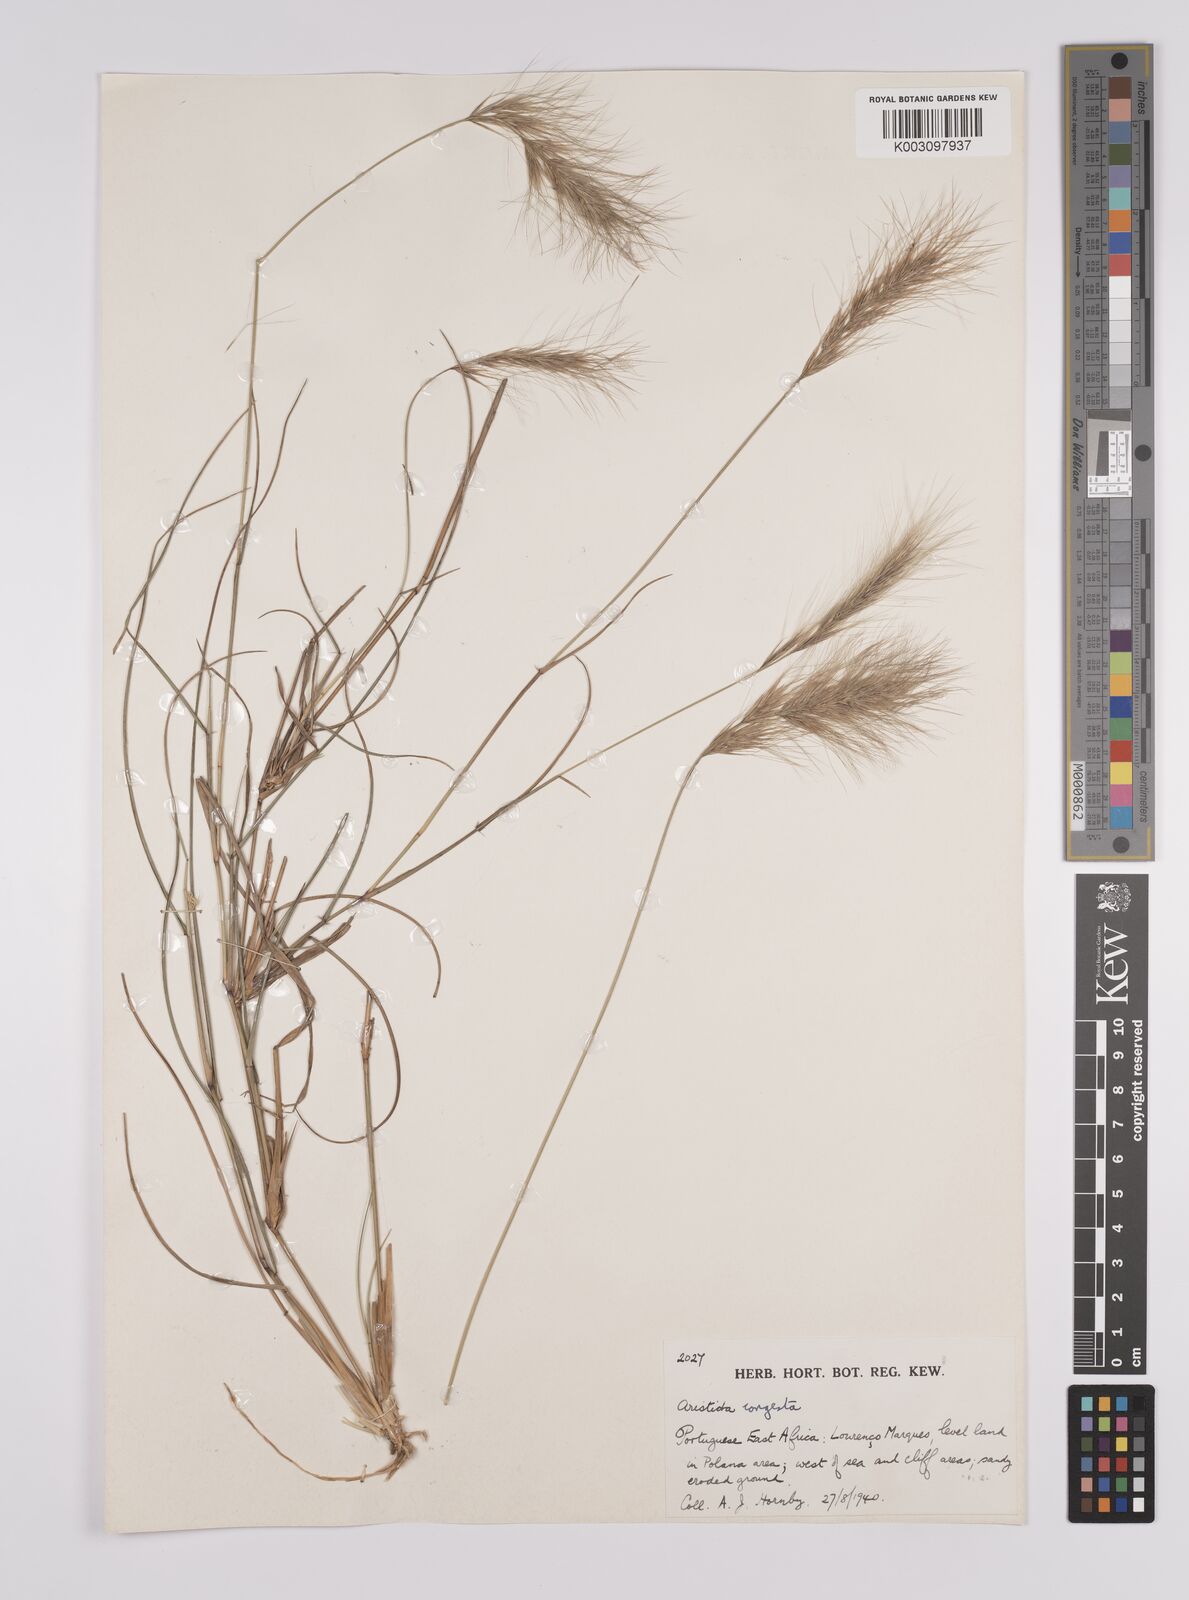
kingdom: Plantae
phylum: Tracheophyta
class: Liliopsida
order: Poales
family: Poaceae
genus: Aristida
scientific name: Aristida congesta
